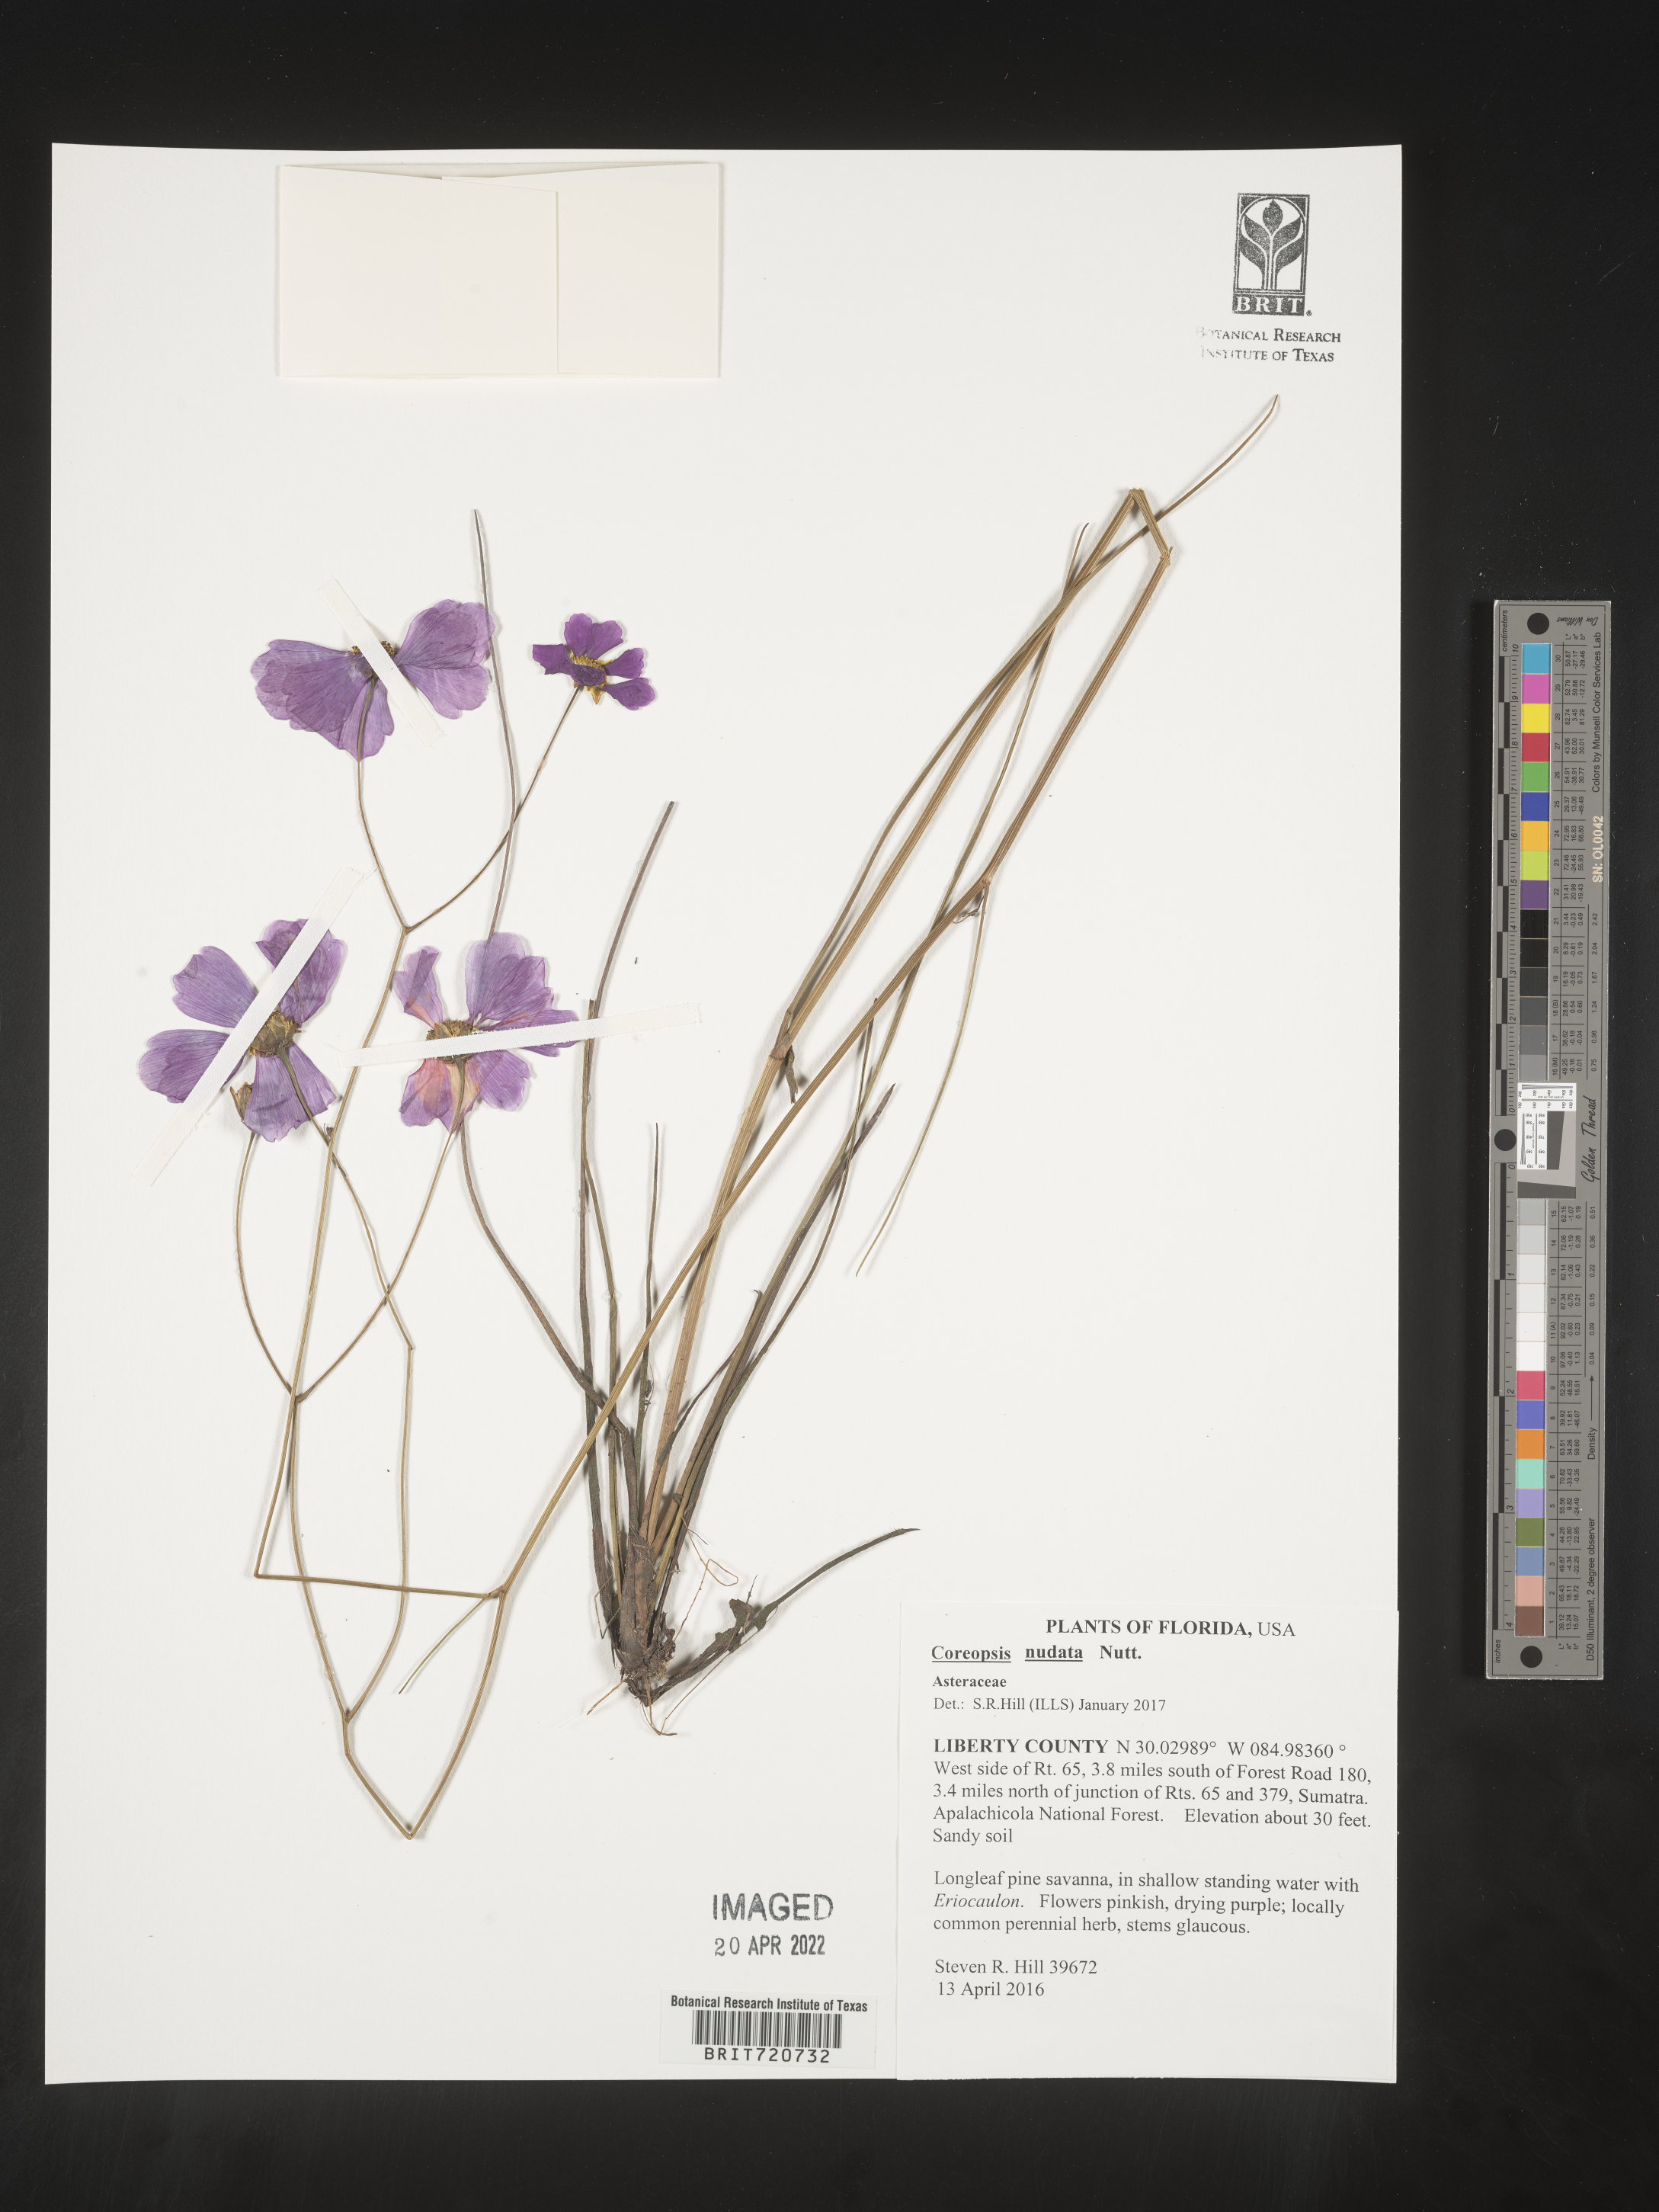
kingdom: Plantae
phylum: Tracheophyta
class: Magnoliopsida
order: Asterales
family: Asteraceae
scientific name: Asteraceae
